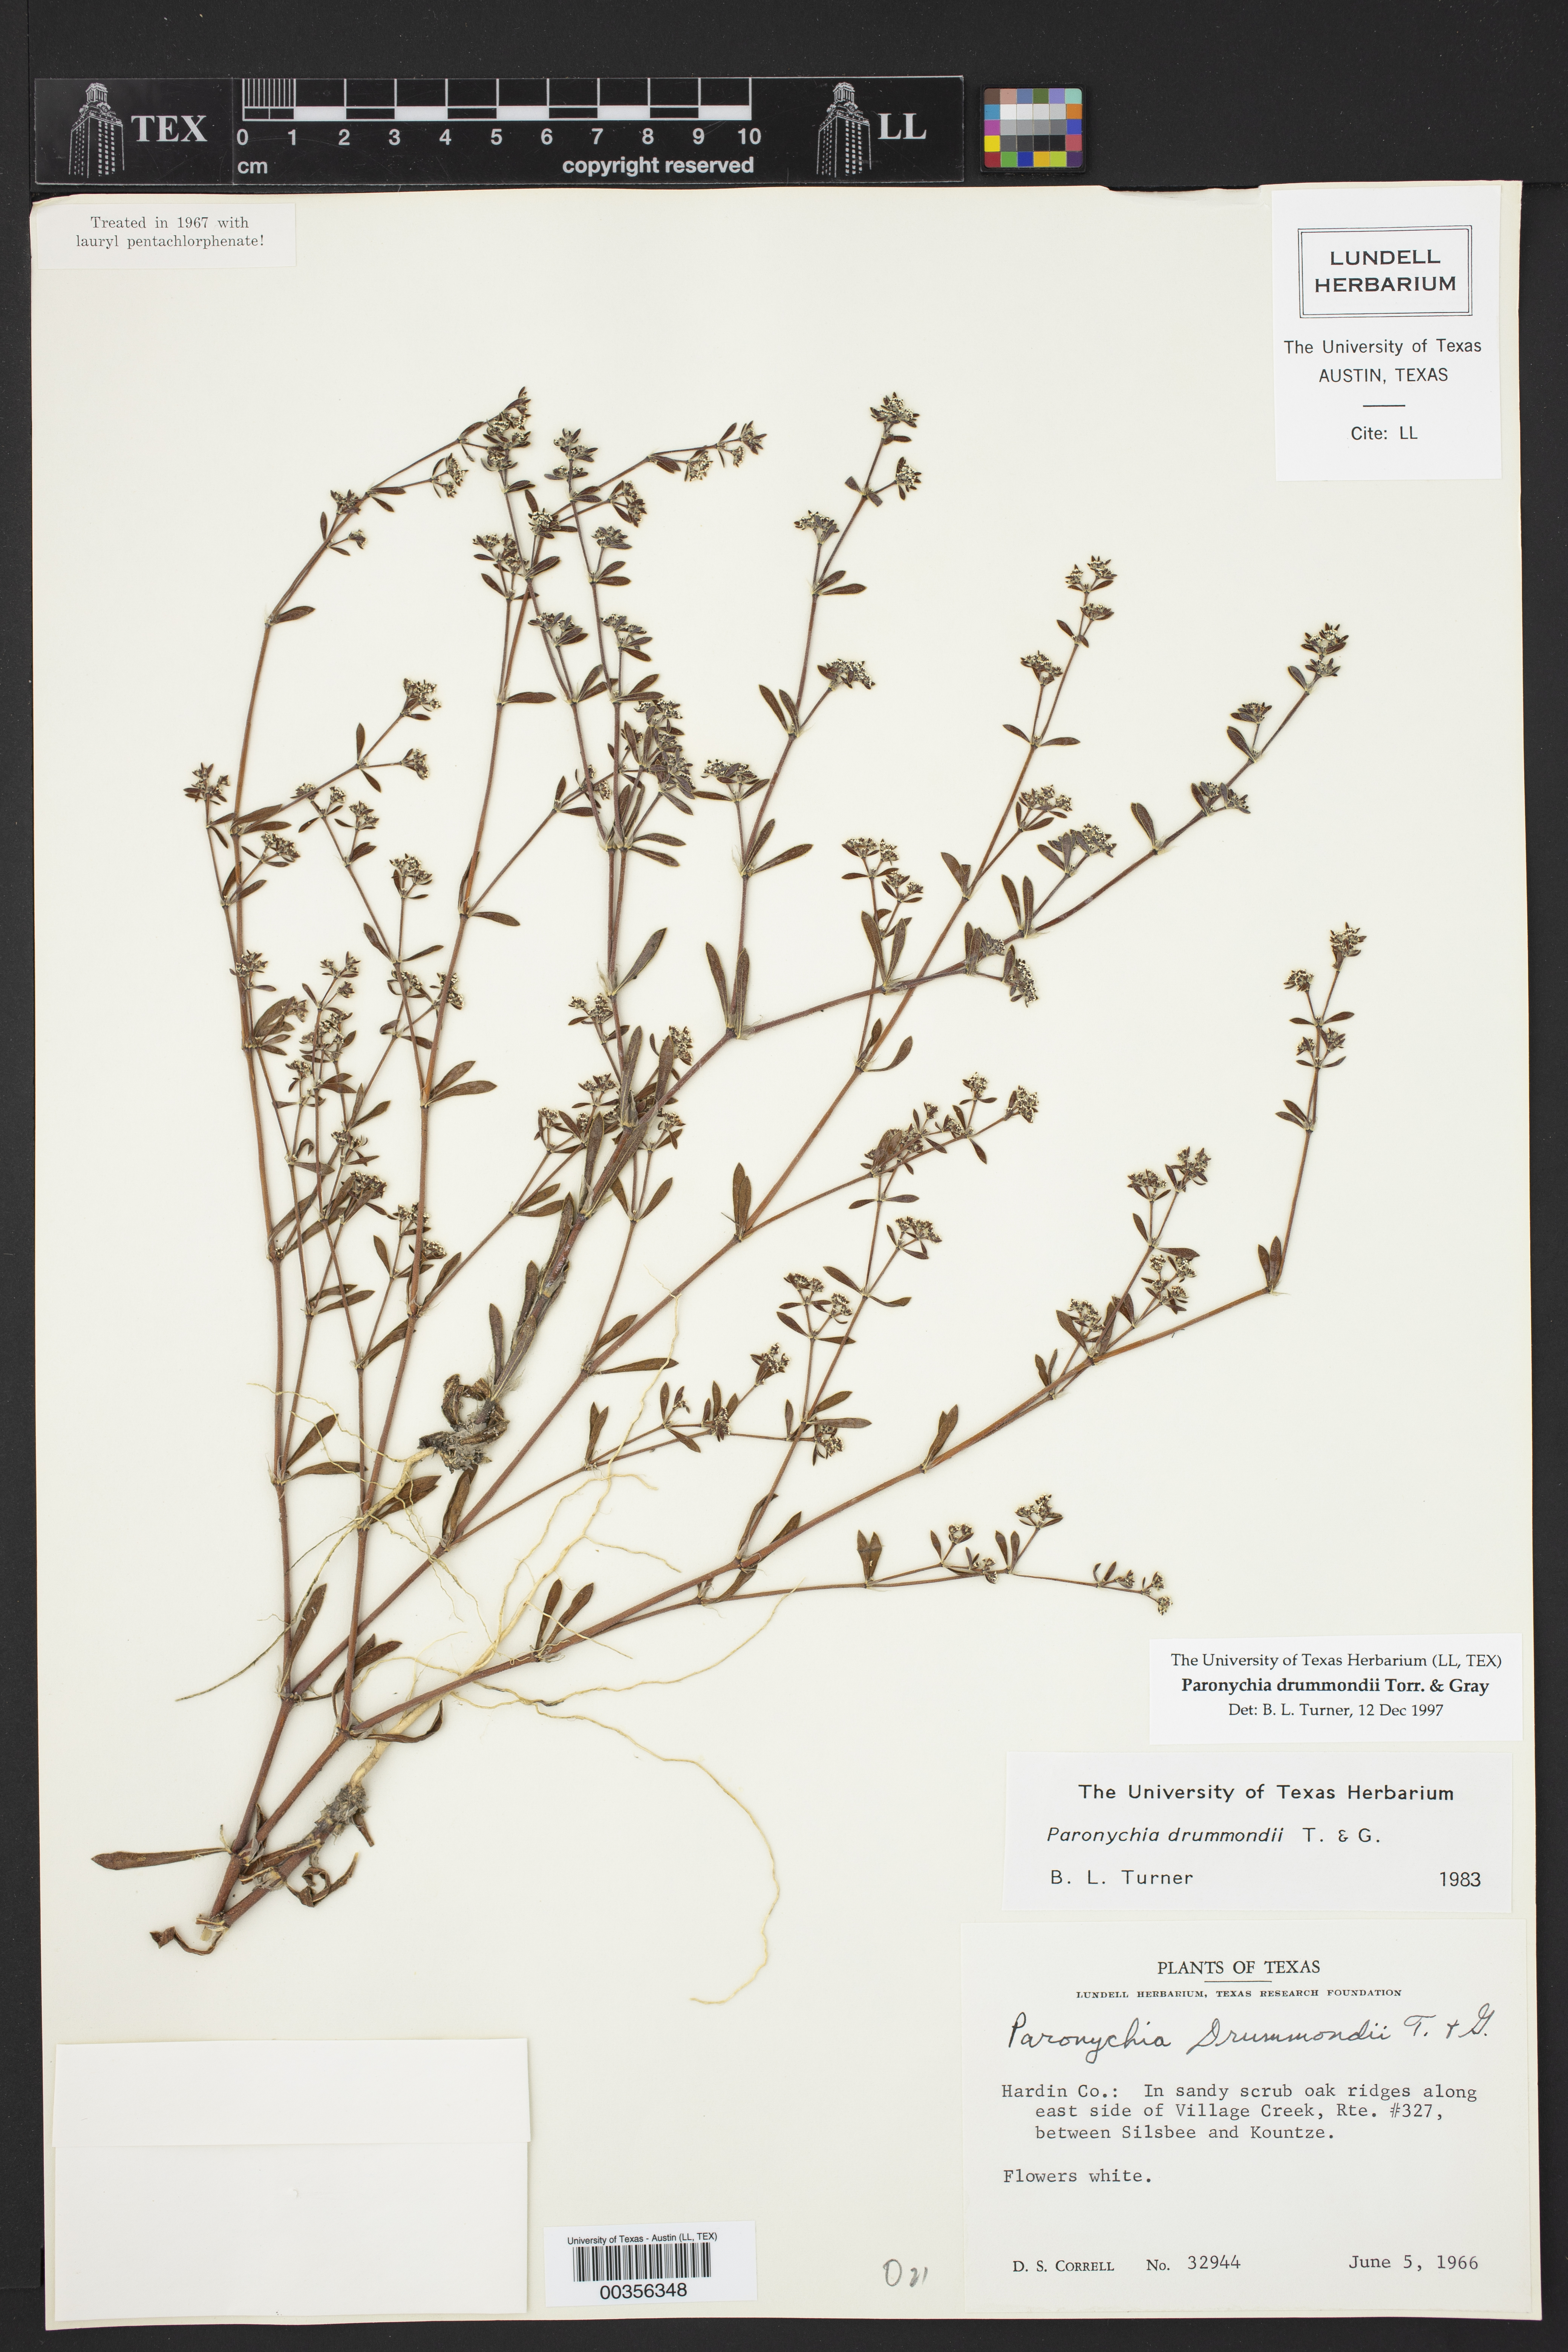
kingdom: Plantae
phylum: Tracheophyta
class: Magnoliopsida
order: Caryophyllales
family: Caryophyllaceae
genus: Paronychia
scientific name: Paronychia drummondii
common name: Drummond's nailwort
